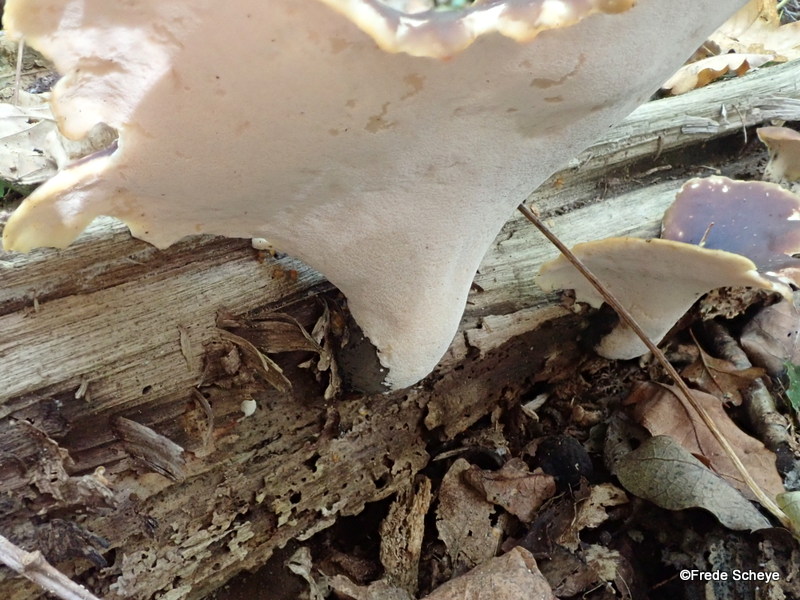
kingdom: Fungi
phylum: Basidiomycota
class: Agaricomycetes
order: Polyporales
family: Polyporaceae
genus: Picipes
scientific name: Picipes badius
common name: kastaniebrun stilkporesvamp
